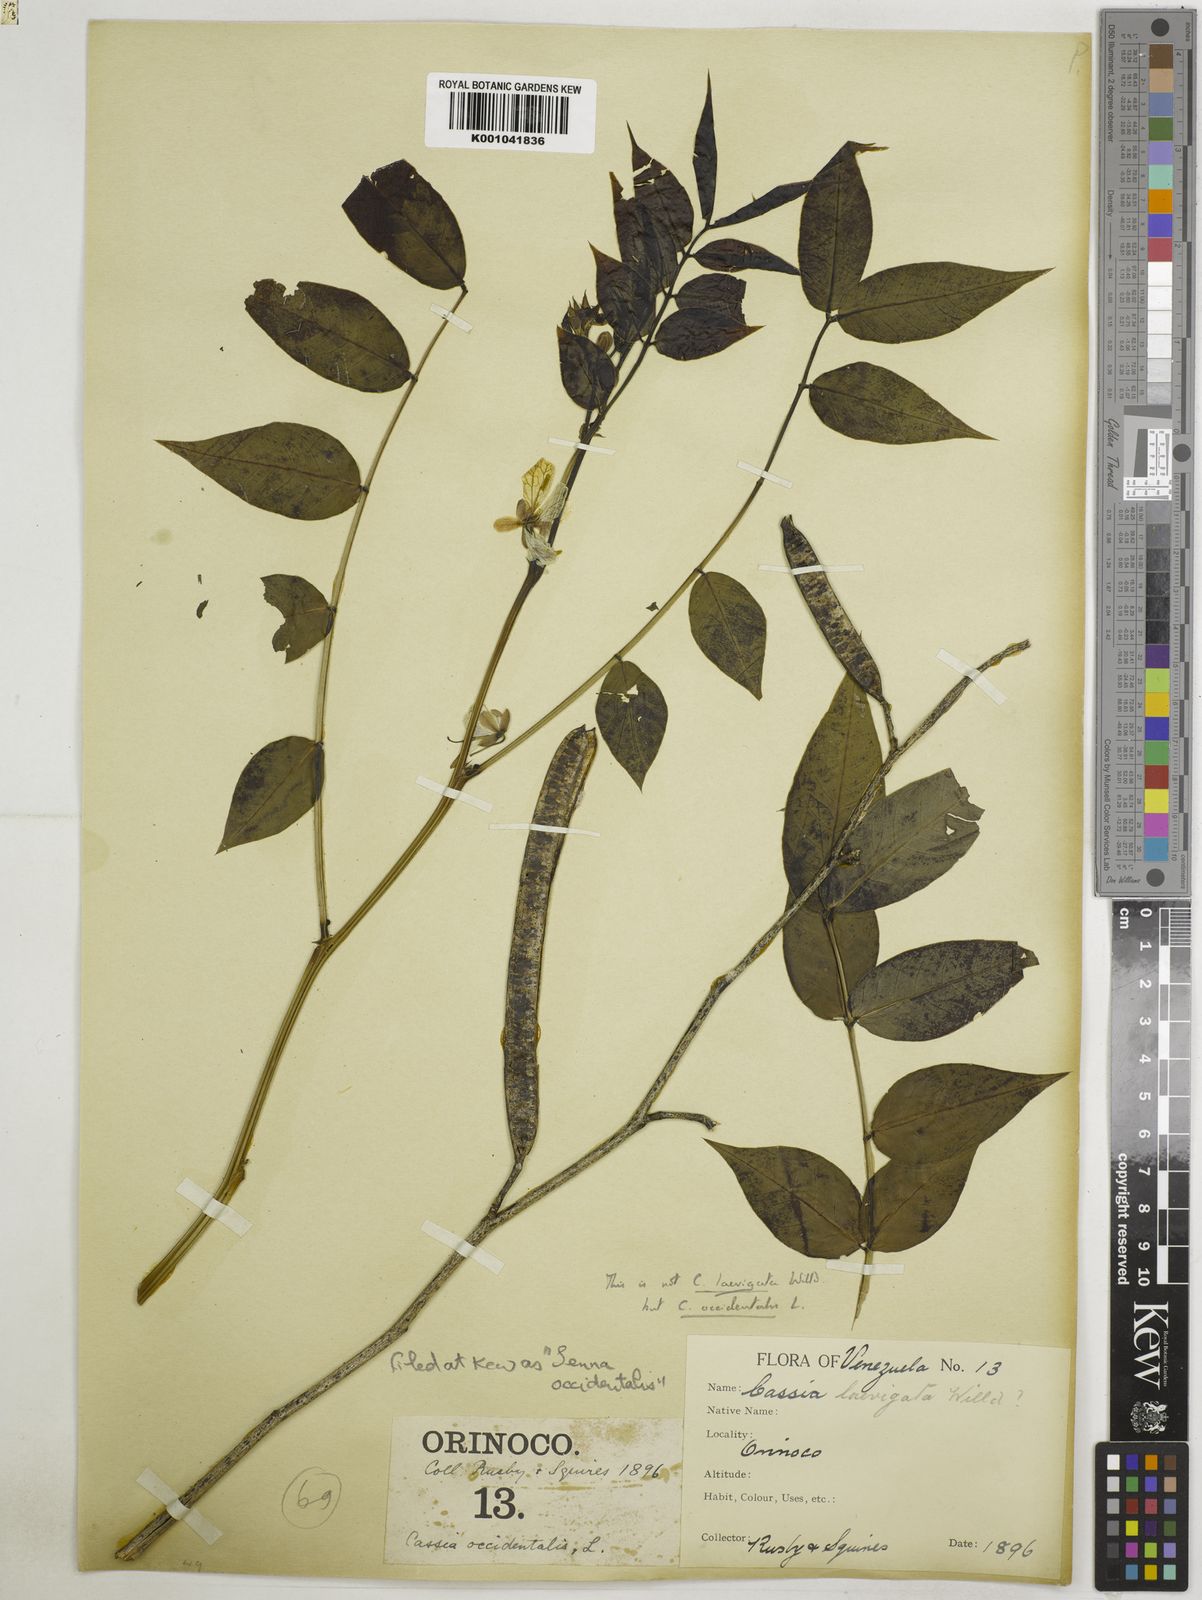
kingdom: Plantae
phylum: Tracheophyta
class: Magnoliopsida
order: Fabales
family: Fabaceae
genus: Senna
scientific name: Senna occidentalis
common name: Septicweed
